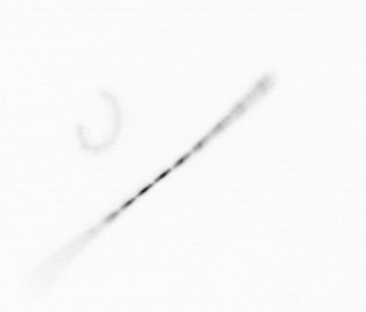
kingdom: Chromista
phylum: Ochrophyta
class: Bacillariophyceae
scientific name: Bacillariophyceae
